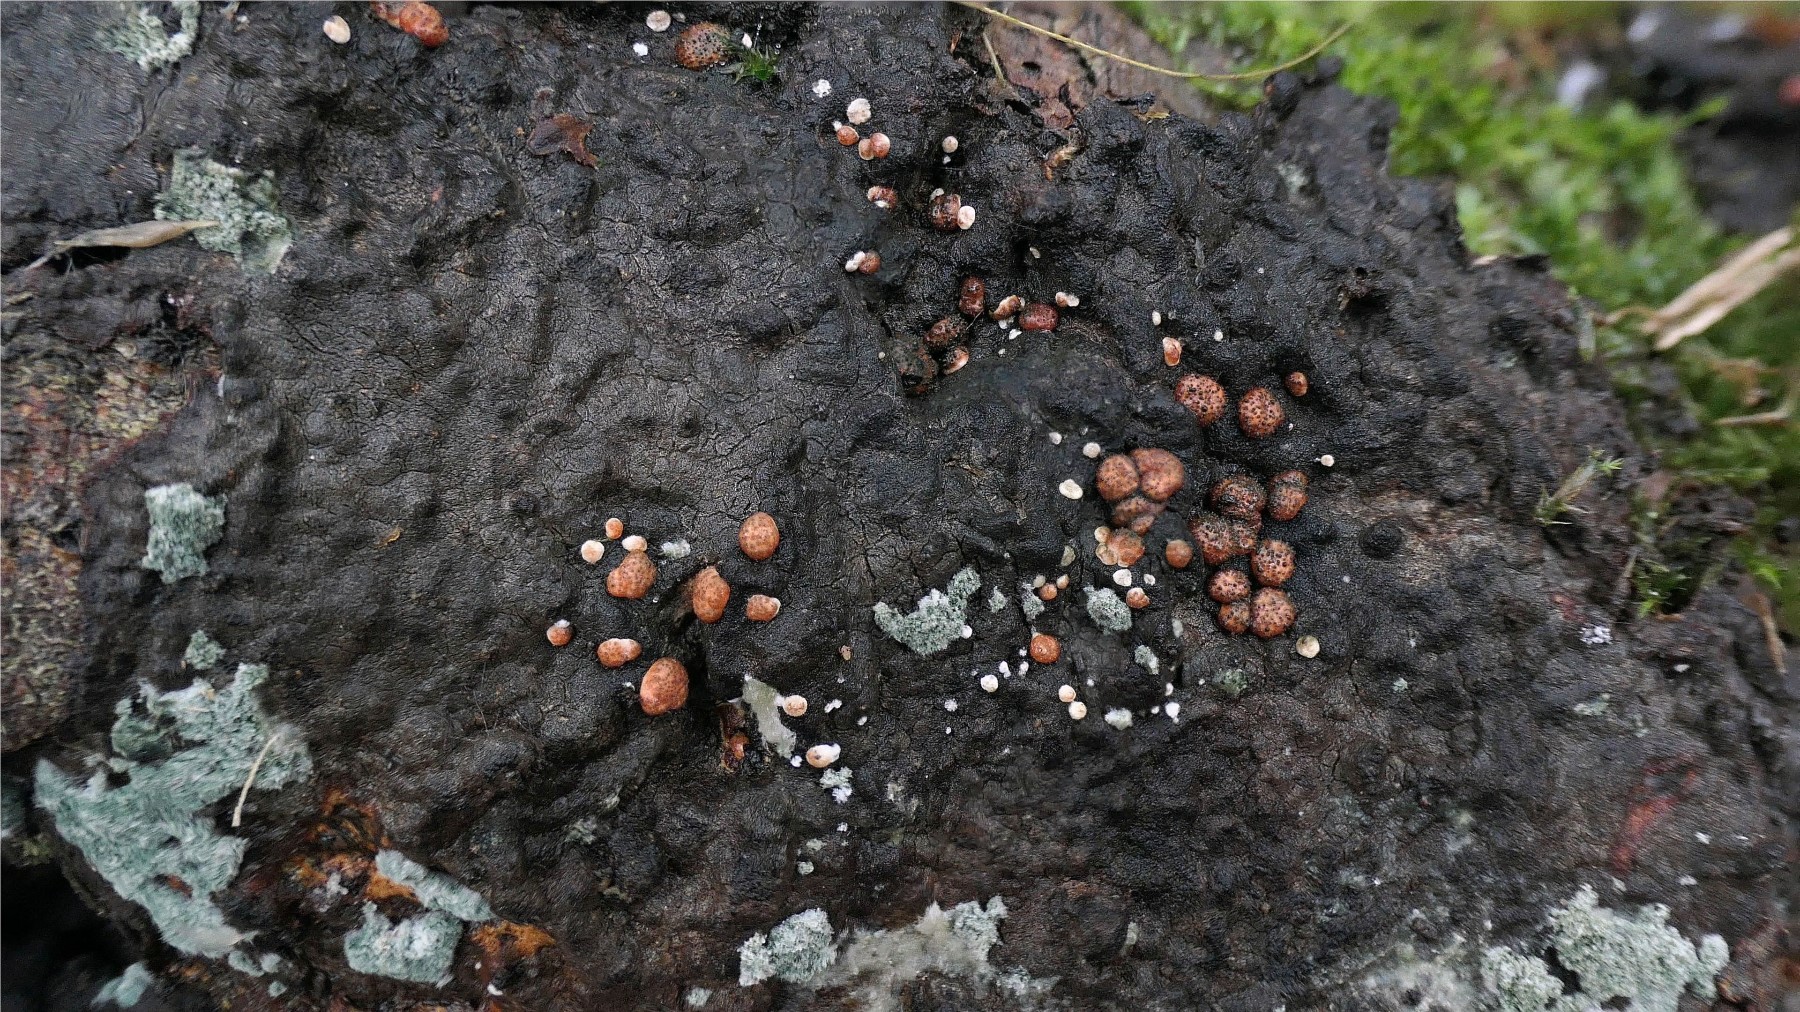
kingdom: Fungi
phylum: Ascomycota
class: Sordariomycetes
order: Hypocreales
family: Hypocreaceae
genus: Trichoderma
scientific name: Trichoderma estonicum
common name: ruslæder-kødkerne
